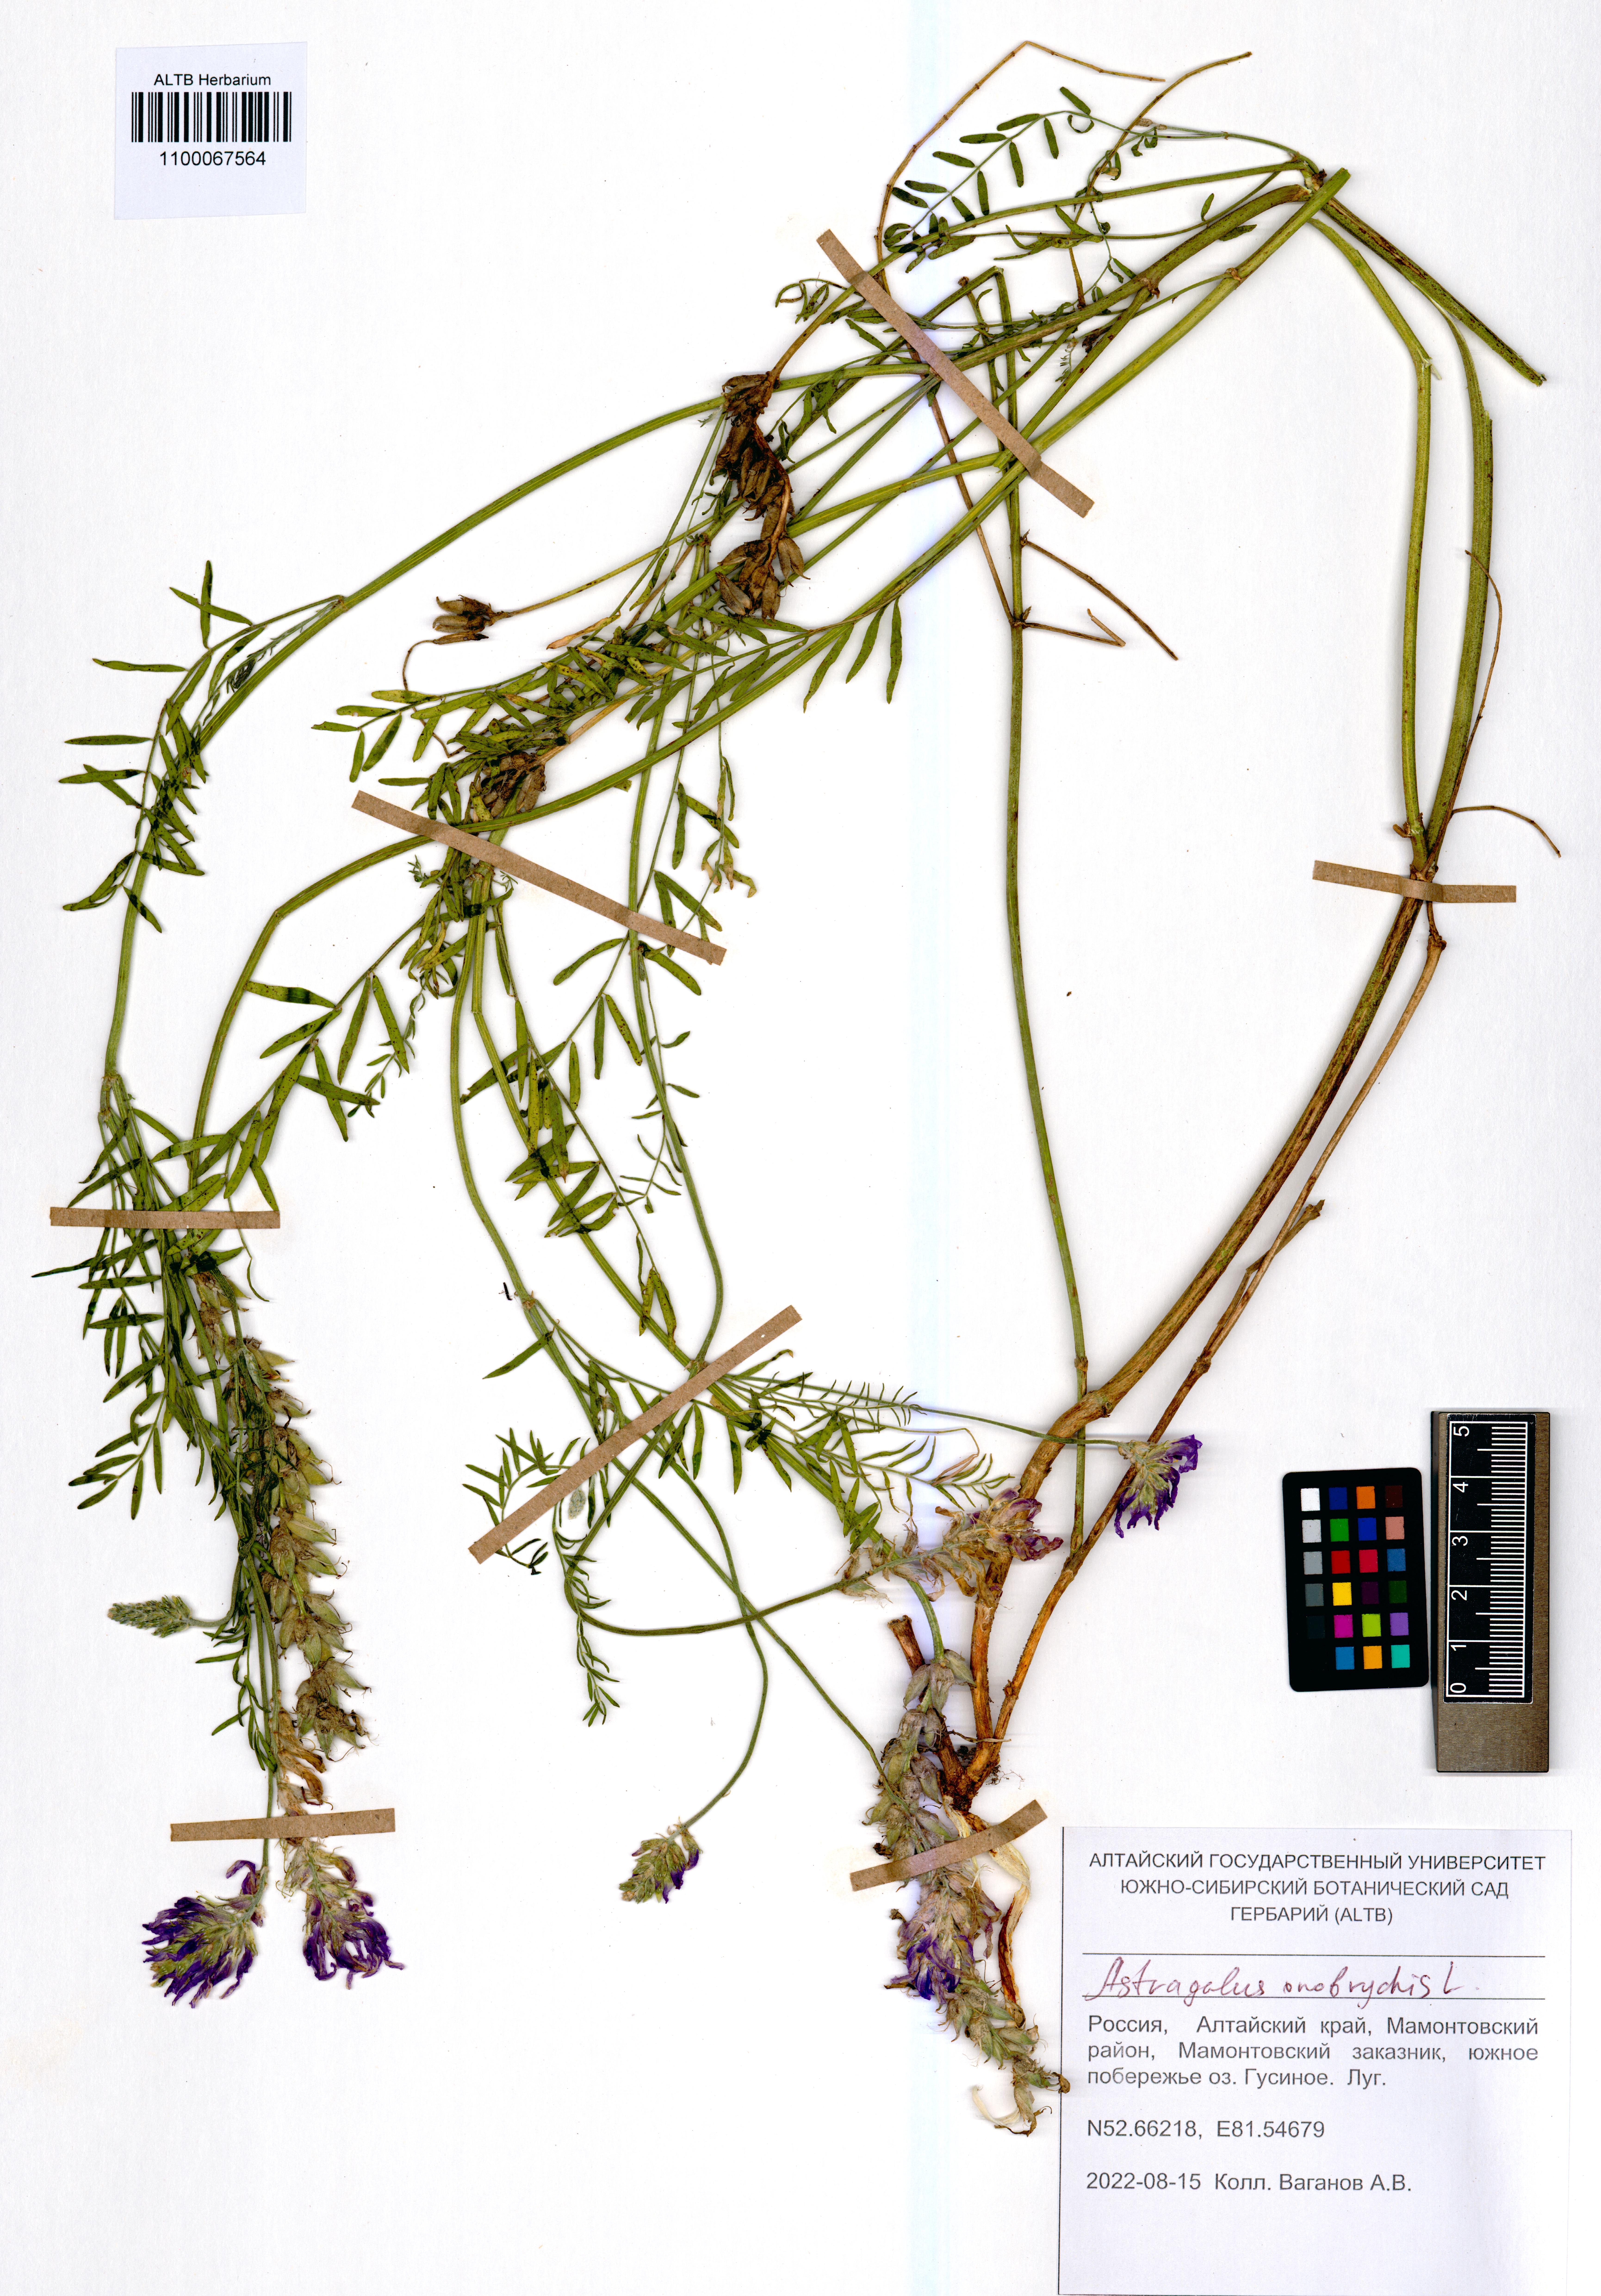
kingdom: Plantae
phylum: Tracheophyta
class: Magnoliopsida
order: Fabales
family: Fabaceae
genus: Astragalus
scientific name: Astragalus onobrychis
